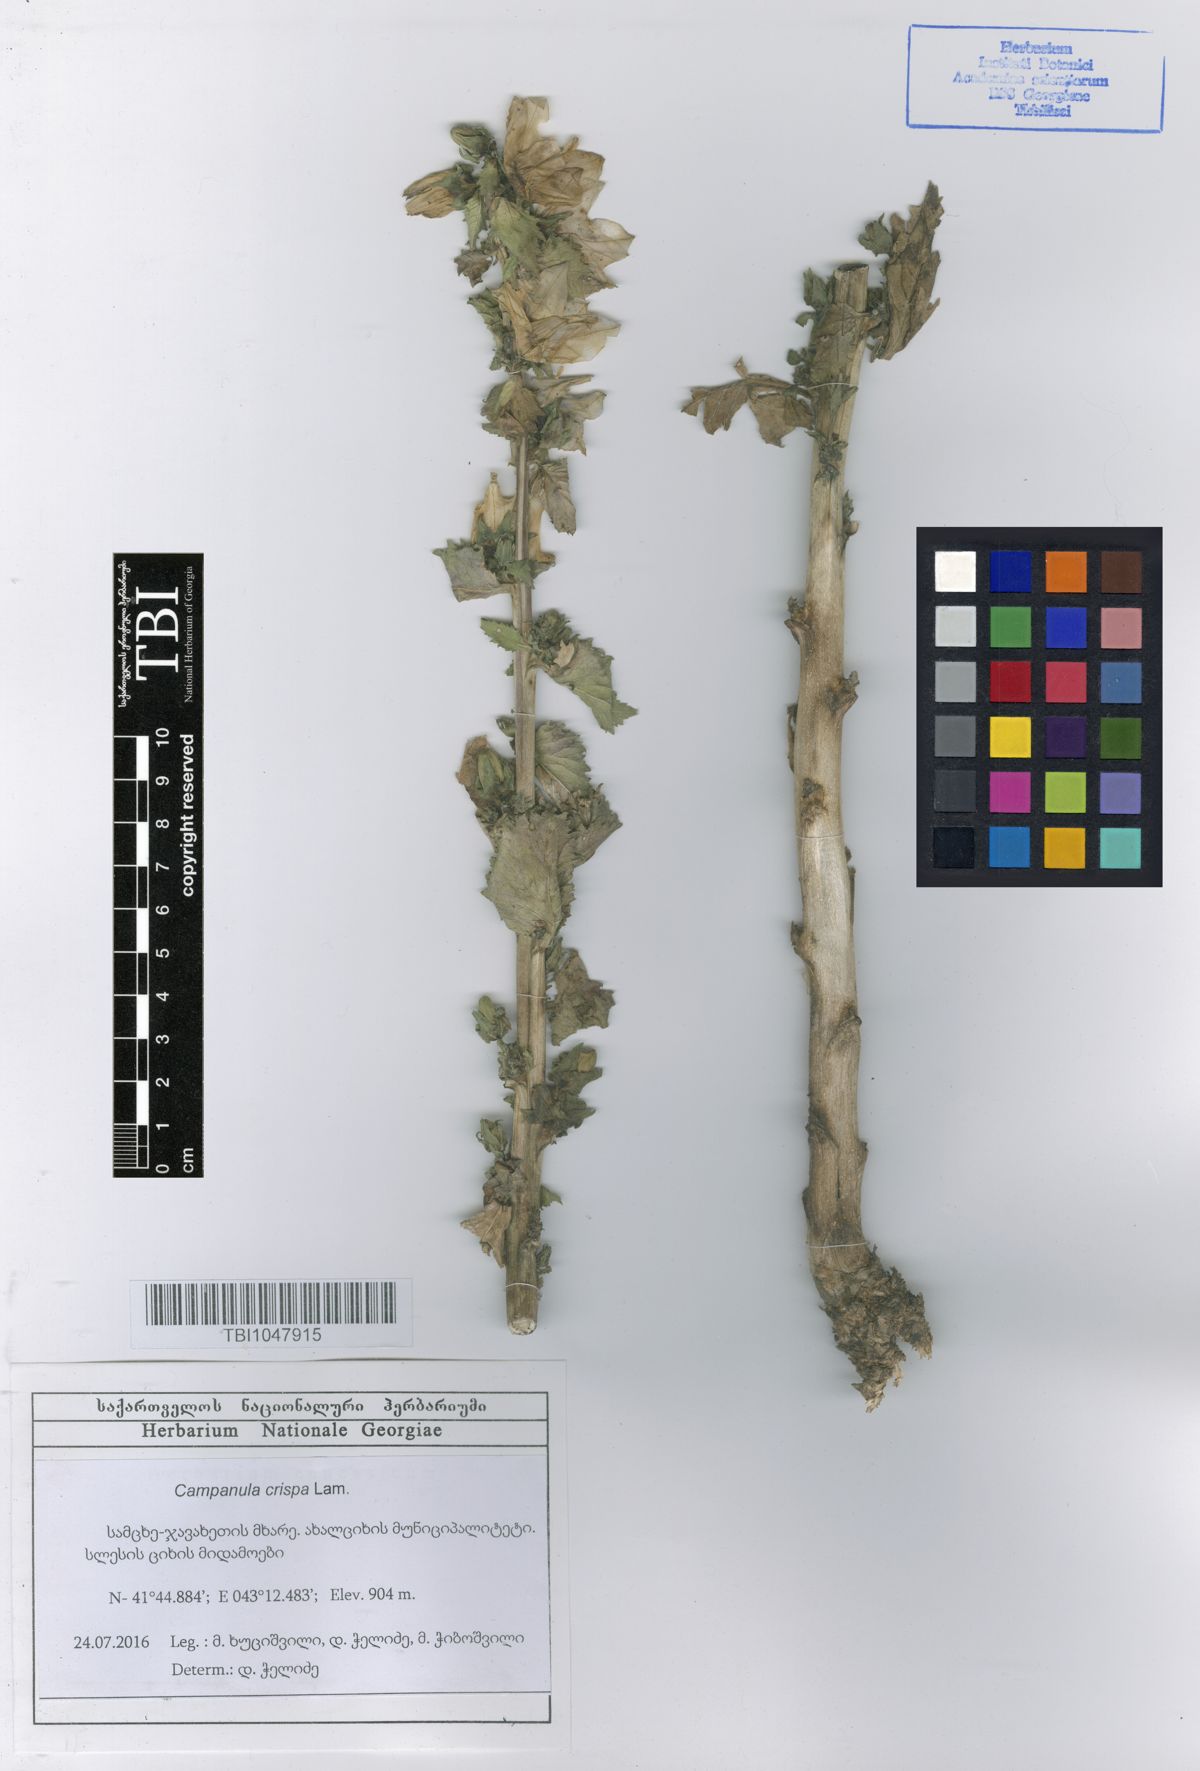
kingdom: Plantae
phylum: Tracheophyta
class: Magnoliopsida
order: Asterales
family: Campanulaceae
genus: Campanula
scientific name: Campanula crispa
